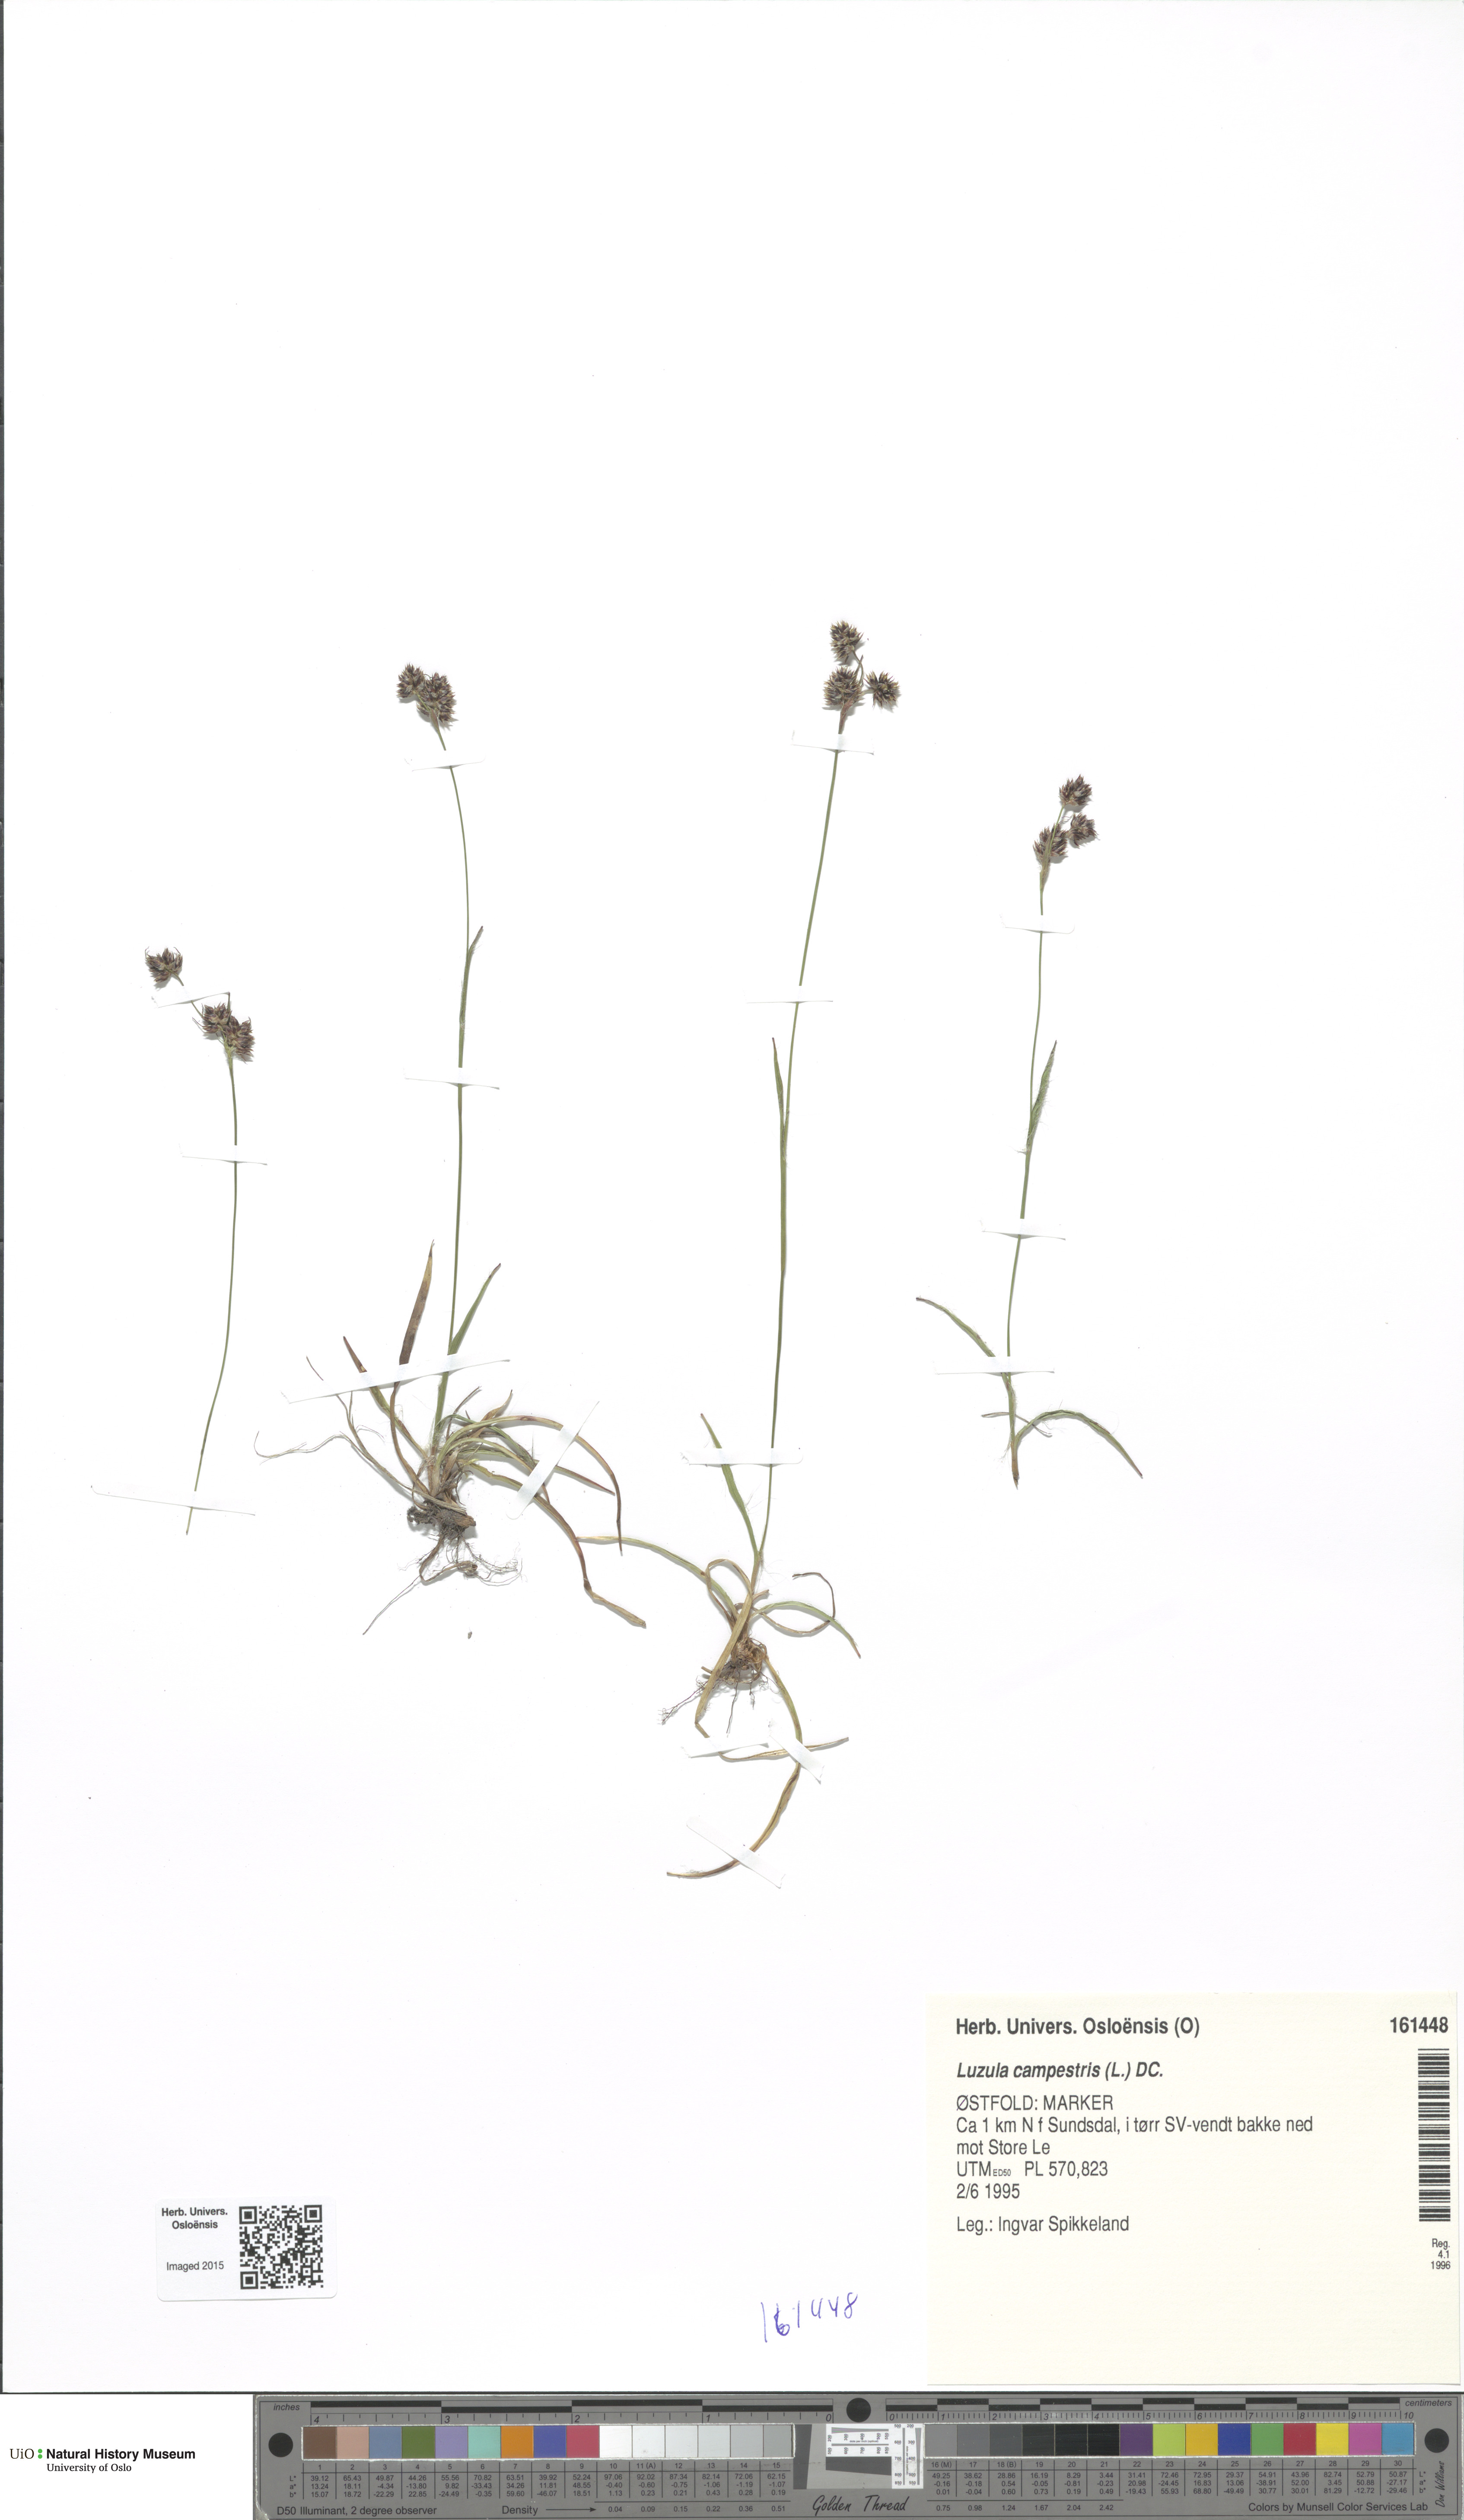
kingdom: Plantae
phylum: Tracheophyta
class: Liliopsida
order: Poales
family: Juncaceae
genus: Luzula
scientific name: Luzula campestris
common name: Field wood-rush
